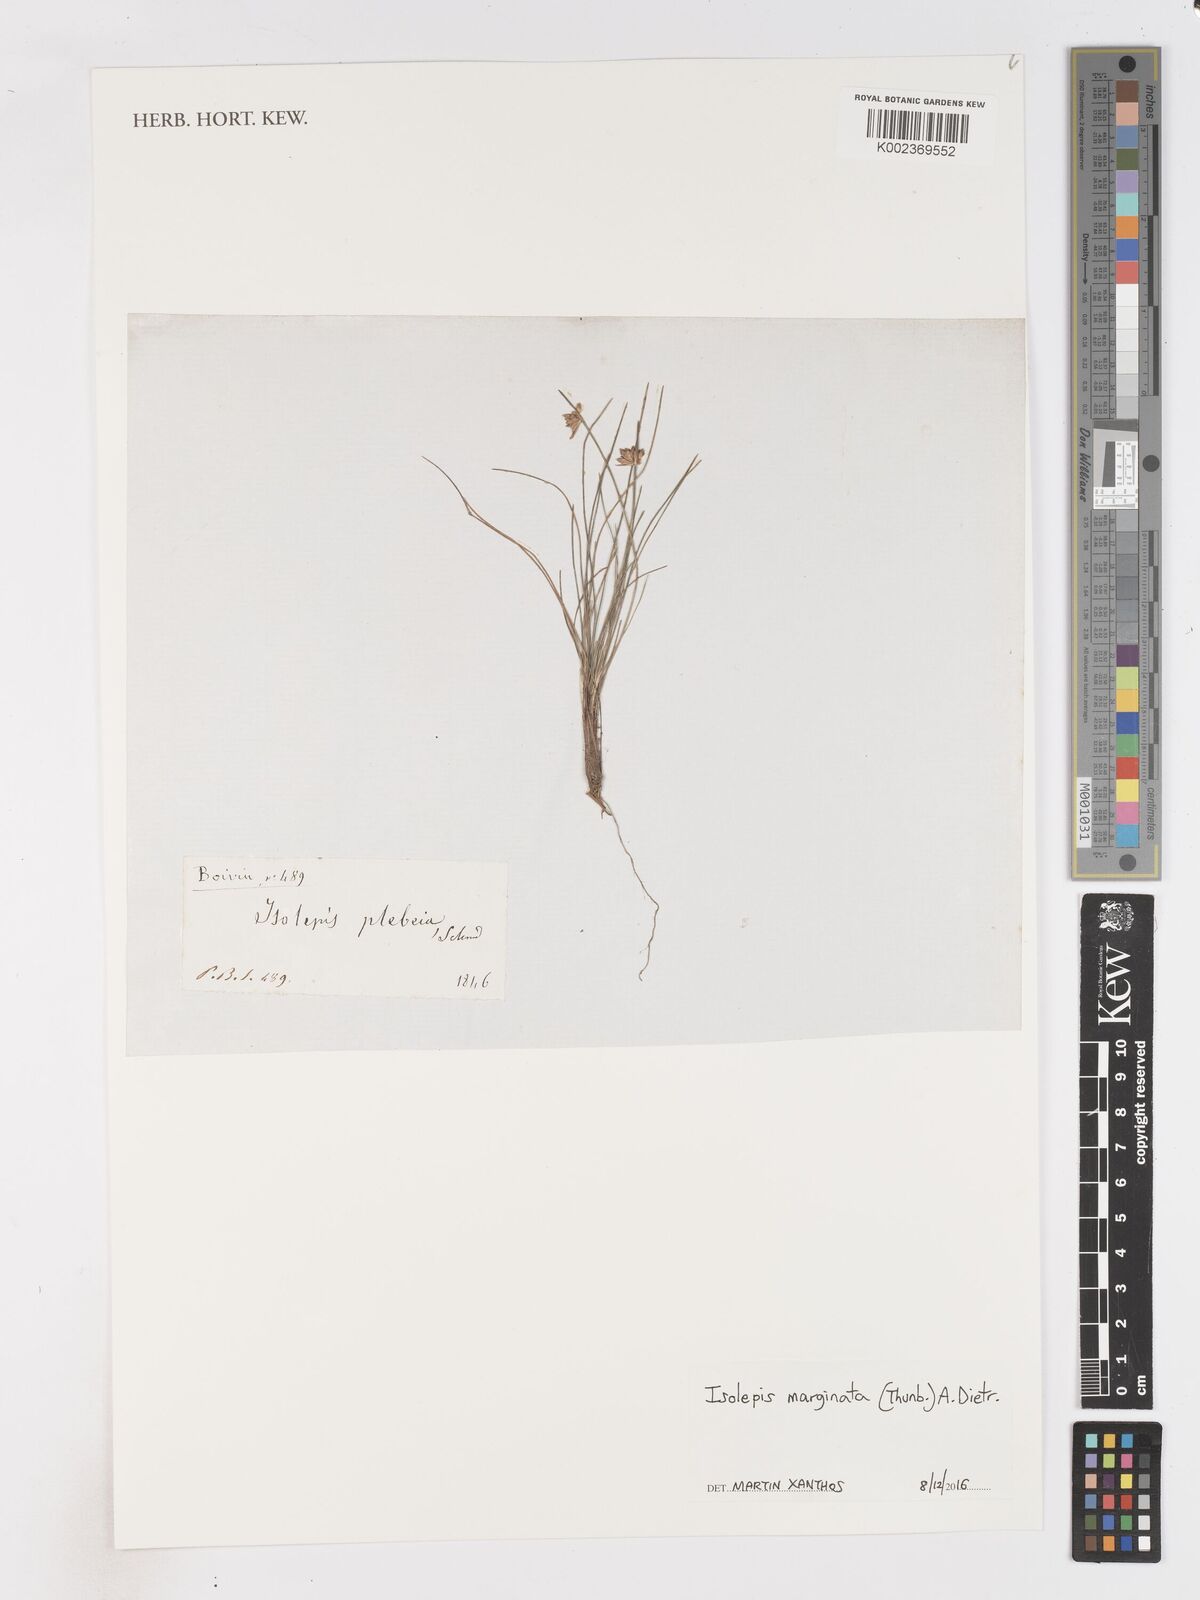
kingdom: Plantae
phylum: Tracheophyta
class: Liliopsida
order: Poales
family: Cyperaceae
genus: Isolepis
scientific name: Isolepis marginata
